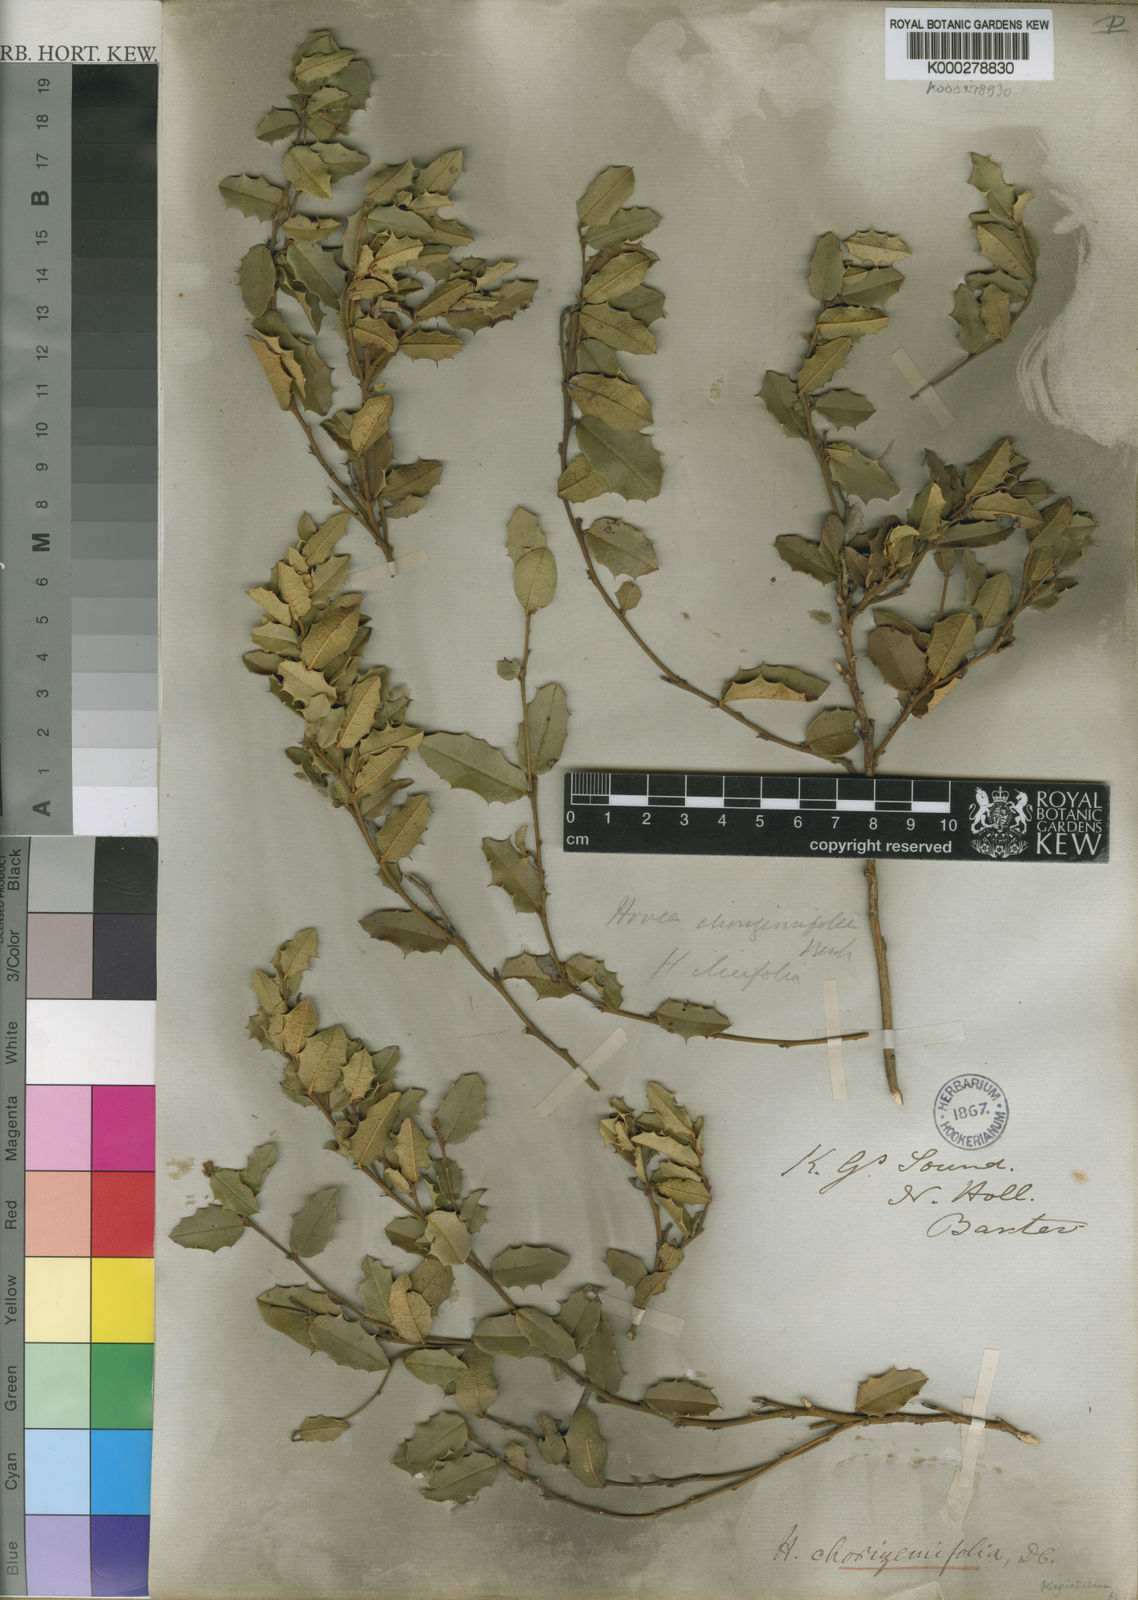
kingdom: Plantae
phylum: Tracheophyta
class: Magnoliopsida
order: Fabales
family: Fabaceae
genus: Hovea
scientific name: Hovea chorizemifolia
